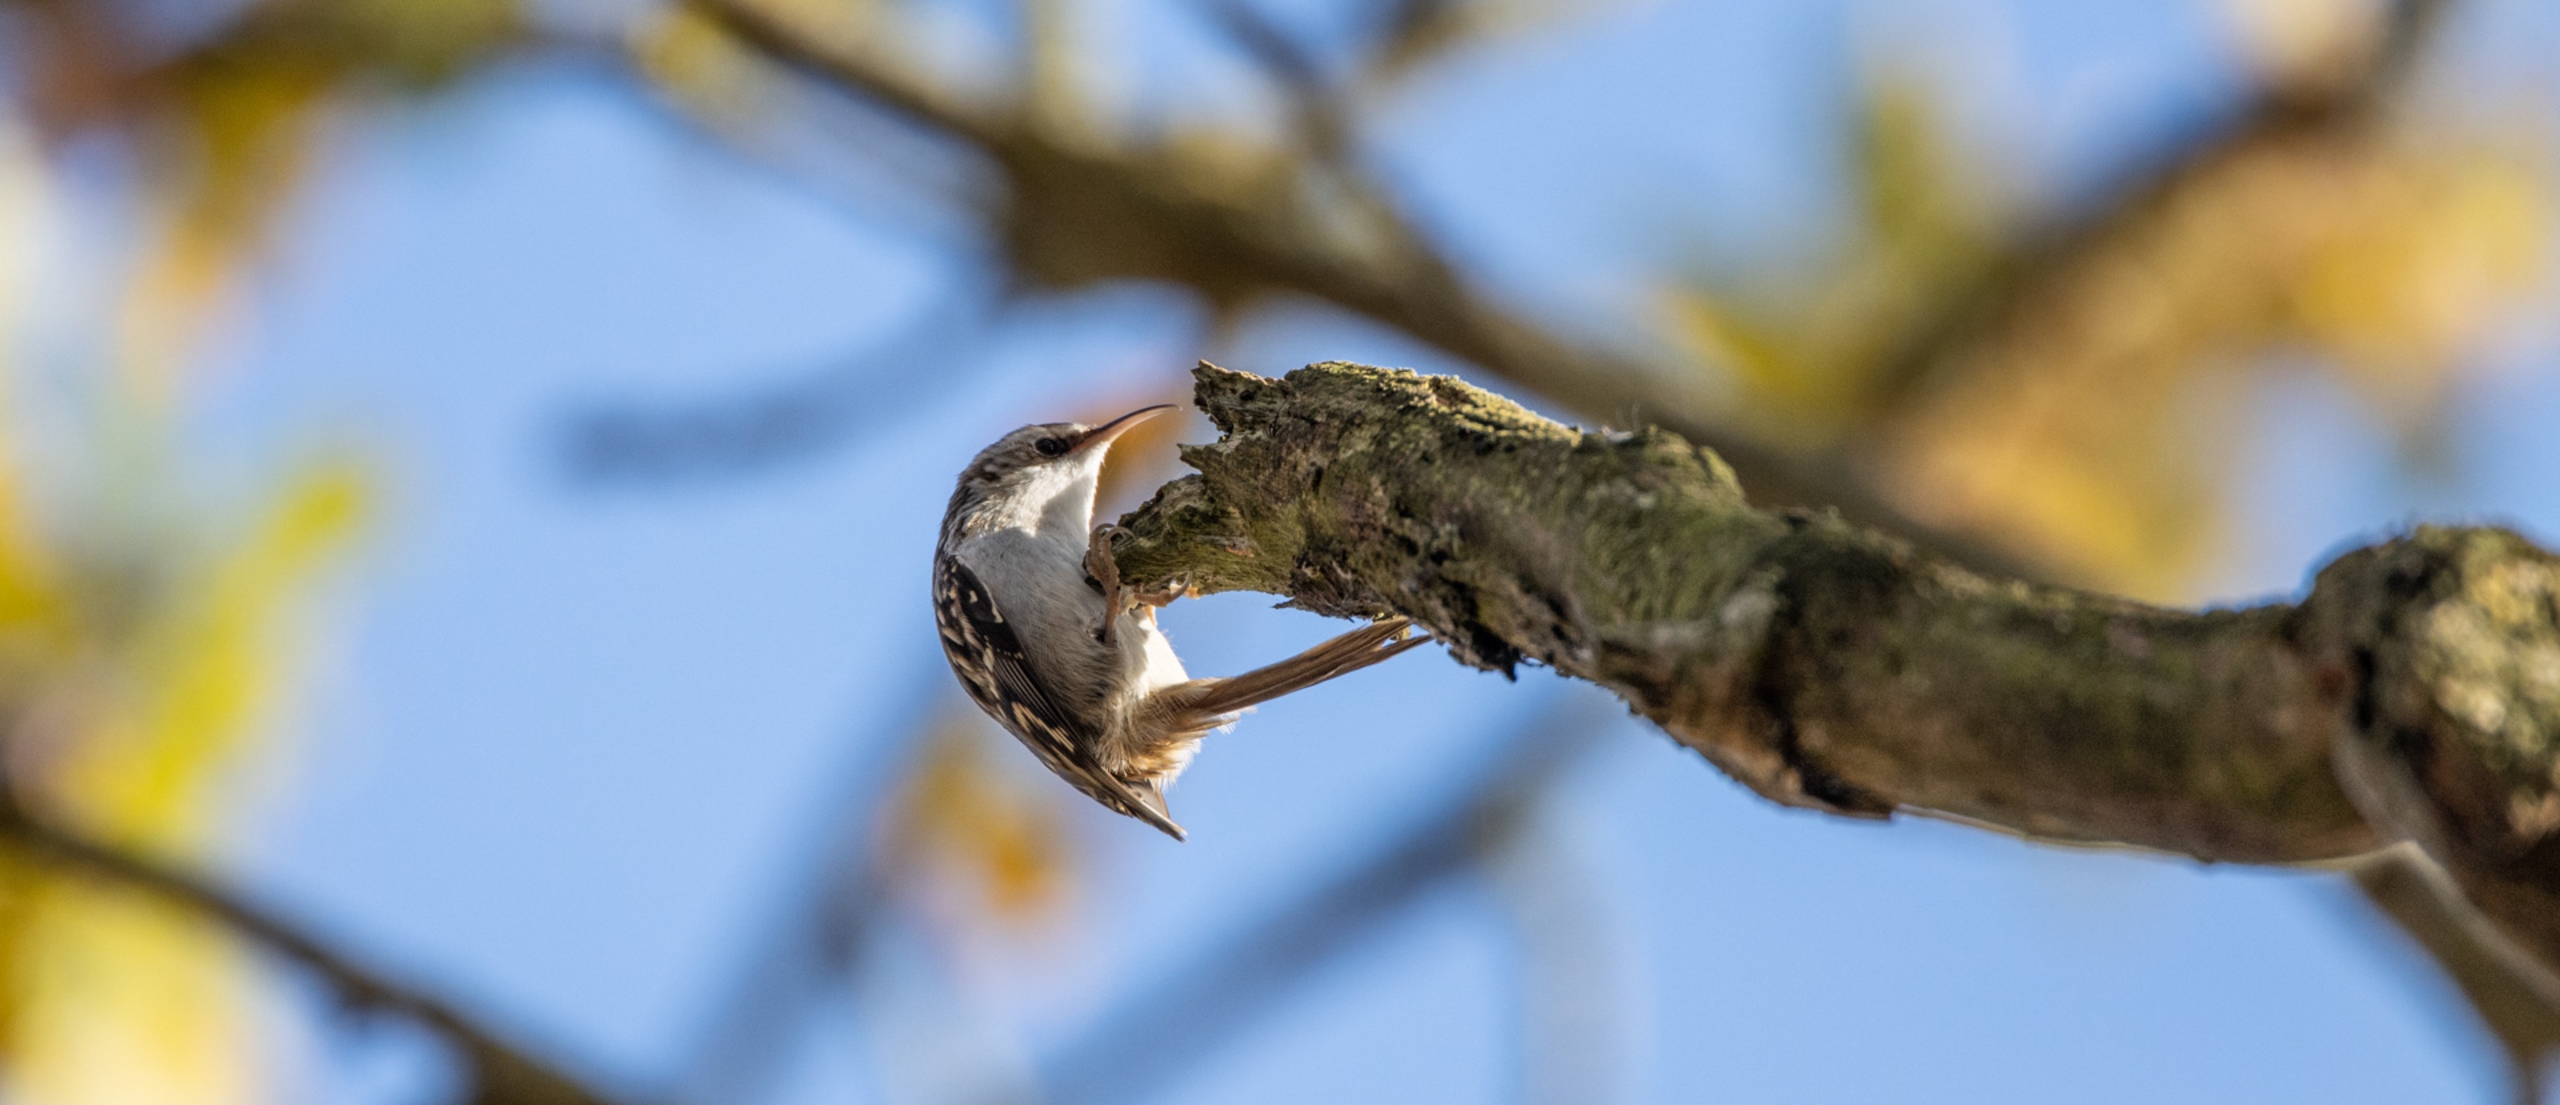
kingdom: Animalia
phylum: Chordata
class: Aves
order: Passeriformes
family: Certhiidae
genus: Certhia
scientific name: Certhia familiaris
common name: Træløber
